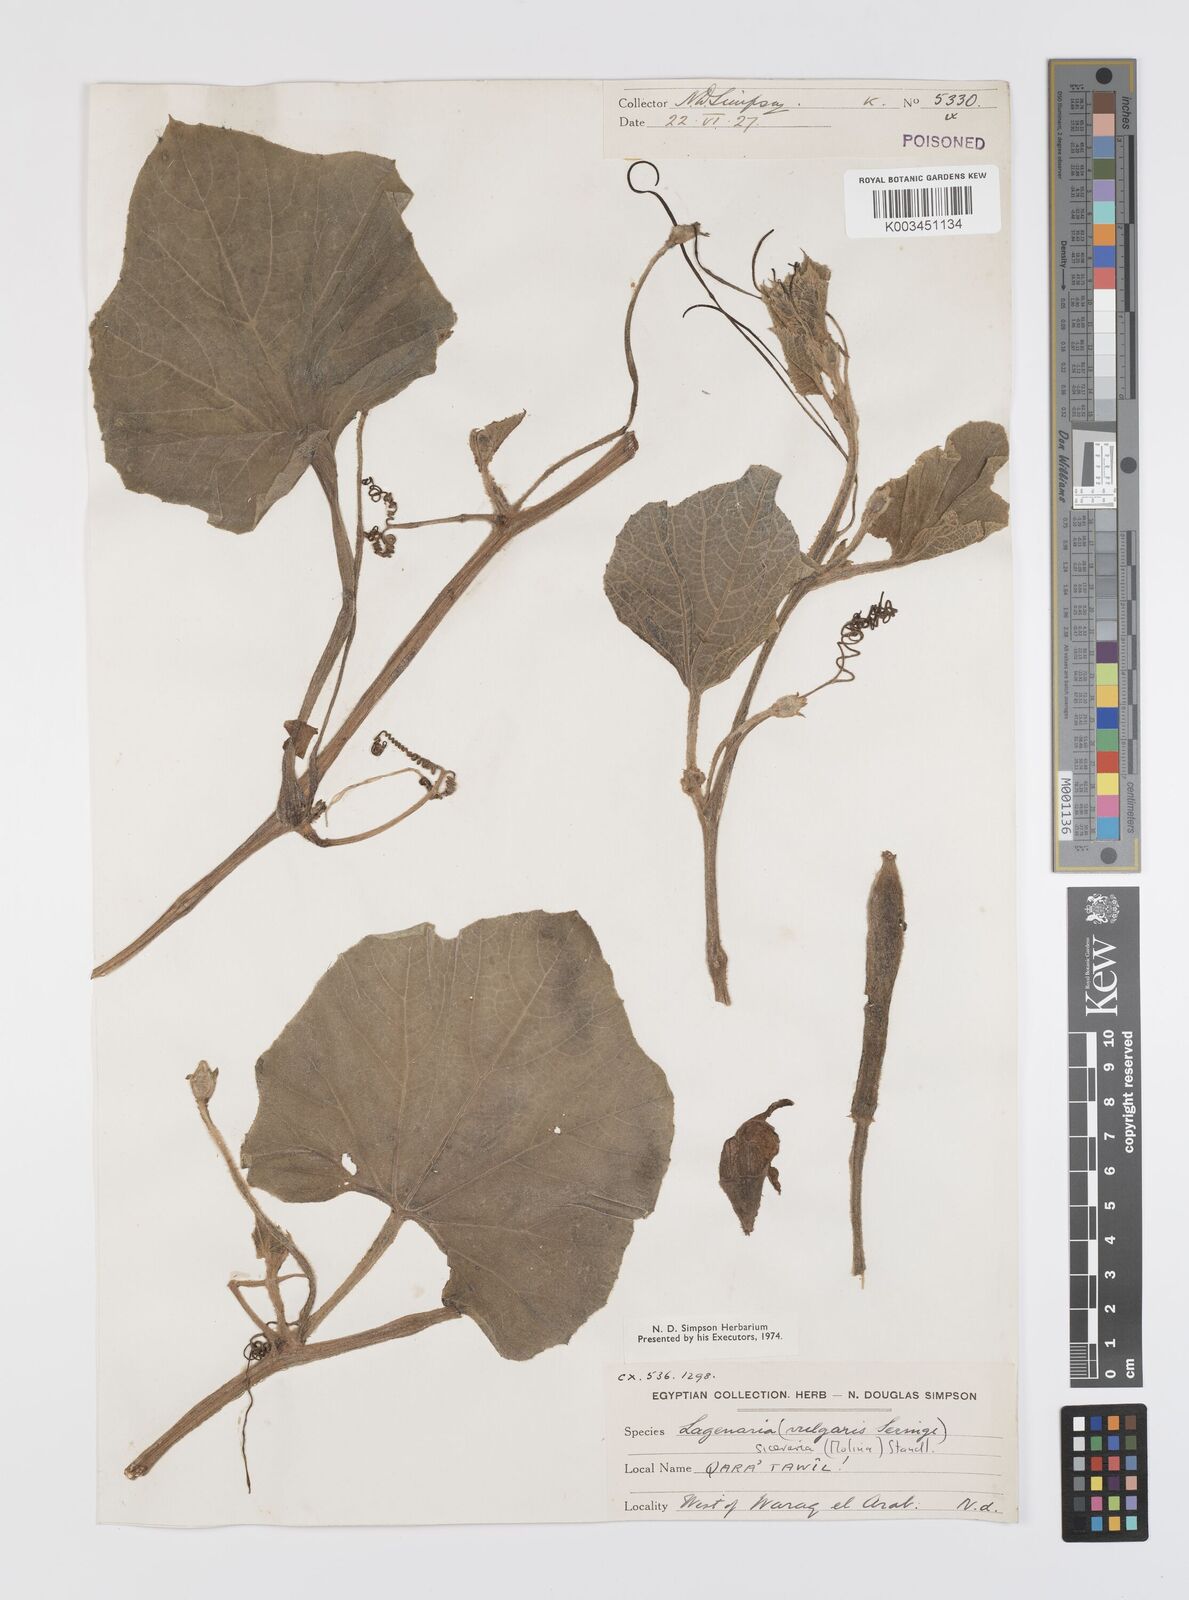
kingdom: Plantae
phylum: Tracheophyta
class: Magnoliopsida
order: Cucurbitales
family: Cucurbitaceae
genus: Lagenaria
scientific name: Lagenaria siceraria
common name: Bottle gourd
